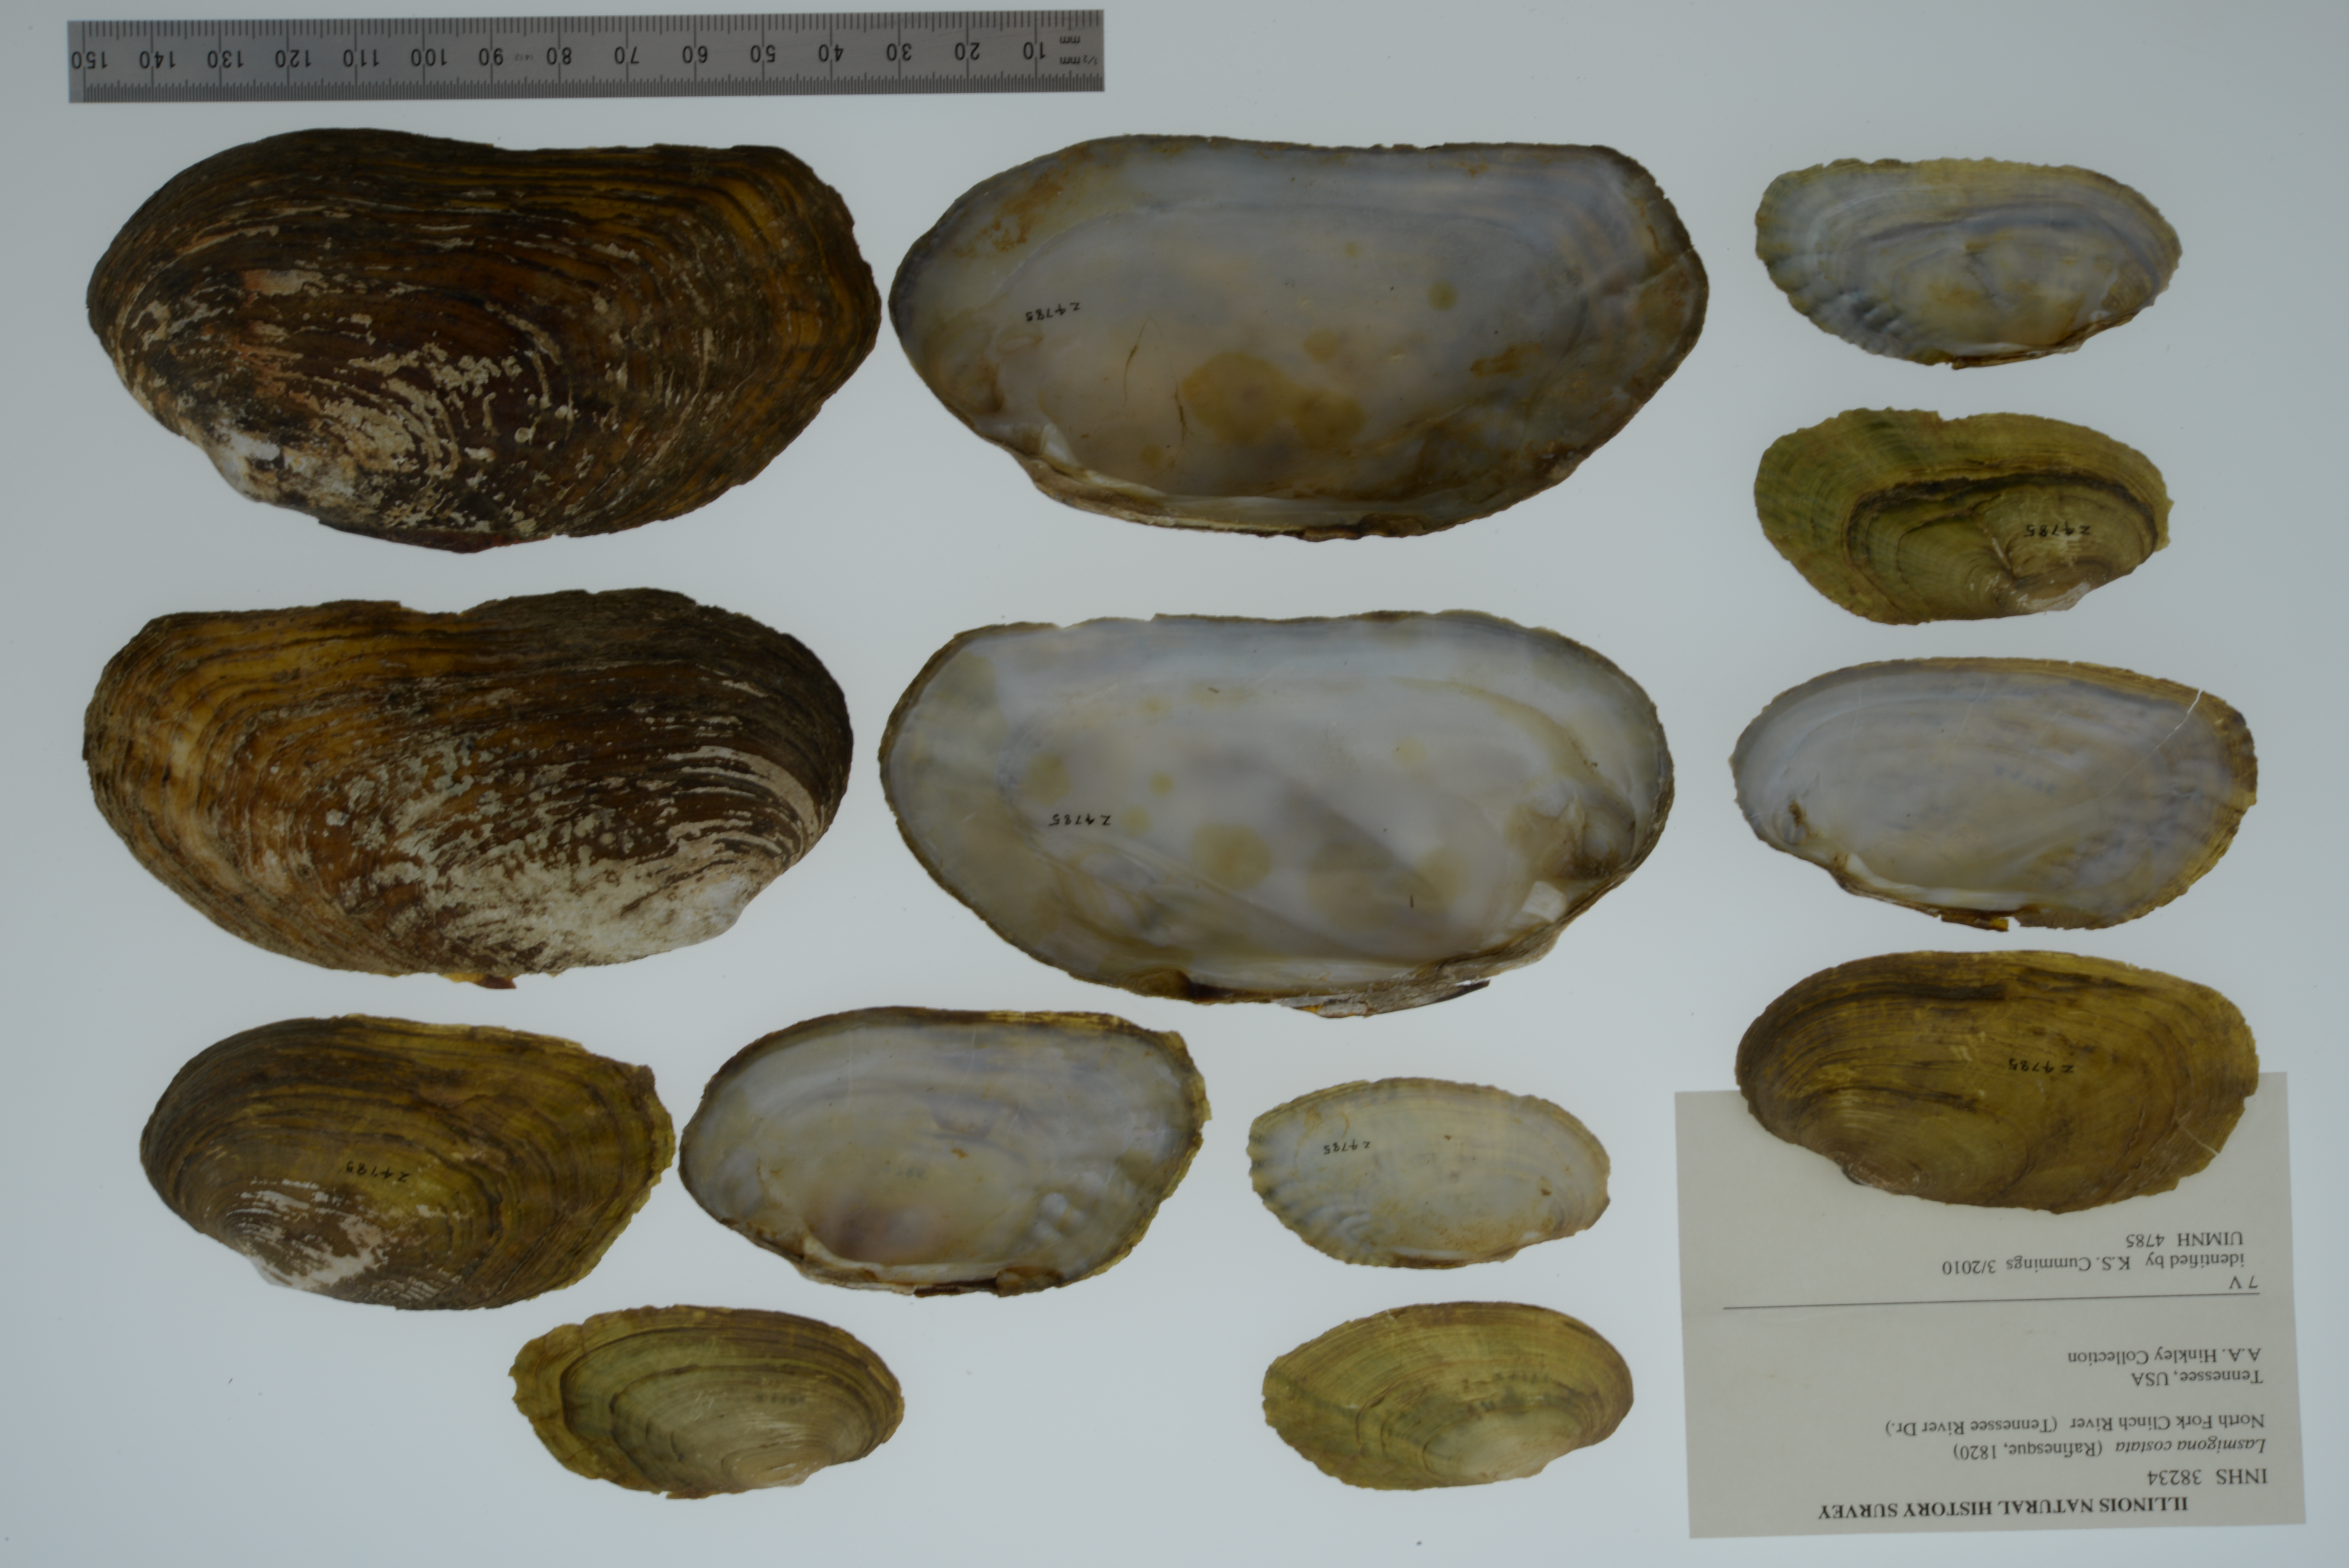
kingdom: Animalia
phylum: Mollusca
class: Bivalvia
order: Unionida
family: Unionidae
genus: Lasmigona
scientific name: Lasmigona costata
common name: Flutedshell
